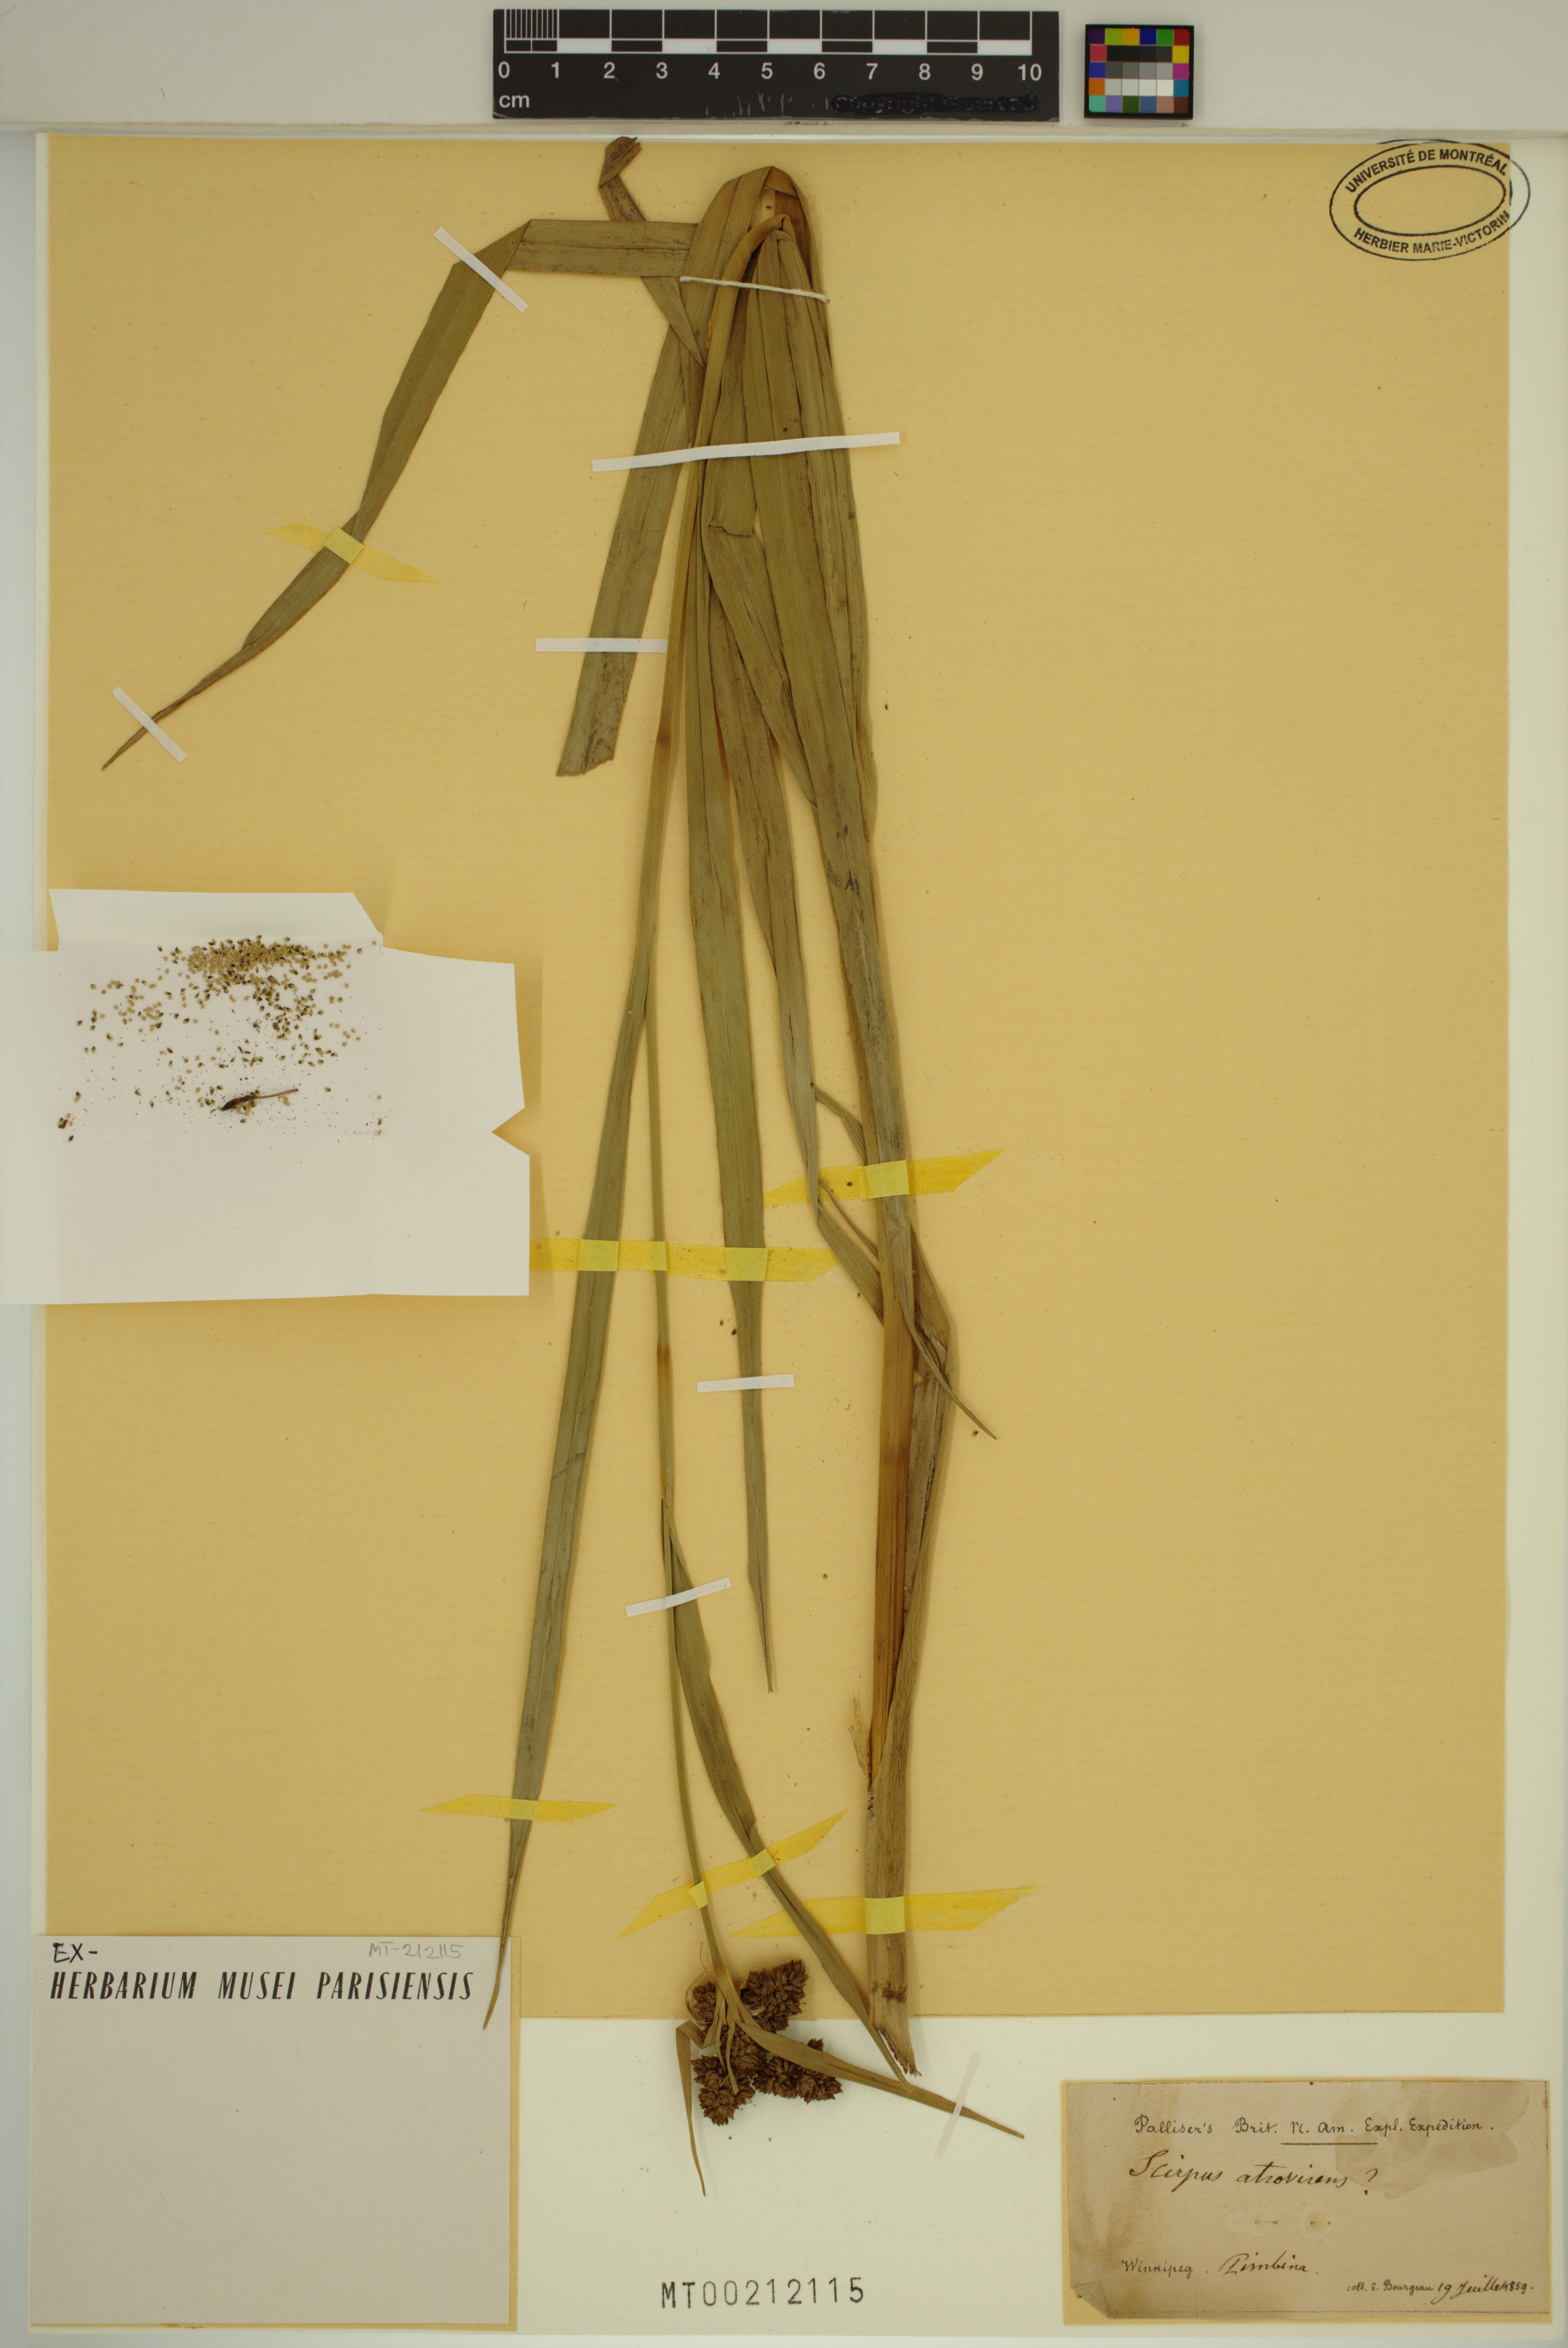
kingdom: Plantae
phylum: Tracheophyta
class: Liliopsida
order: Poales
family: Cyperaceae
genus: Scirpus
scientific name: Scirpus atrovirens
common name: Black bulrush
